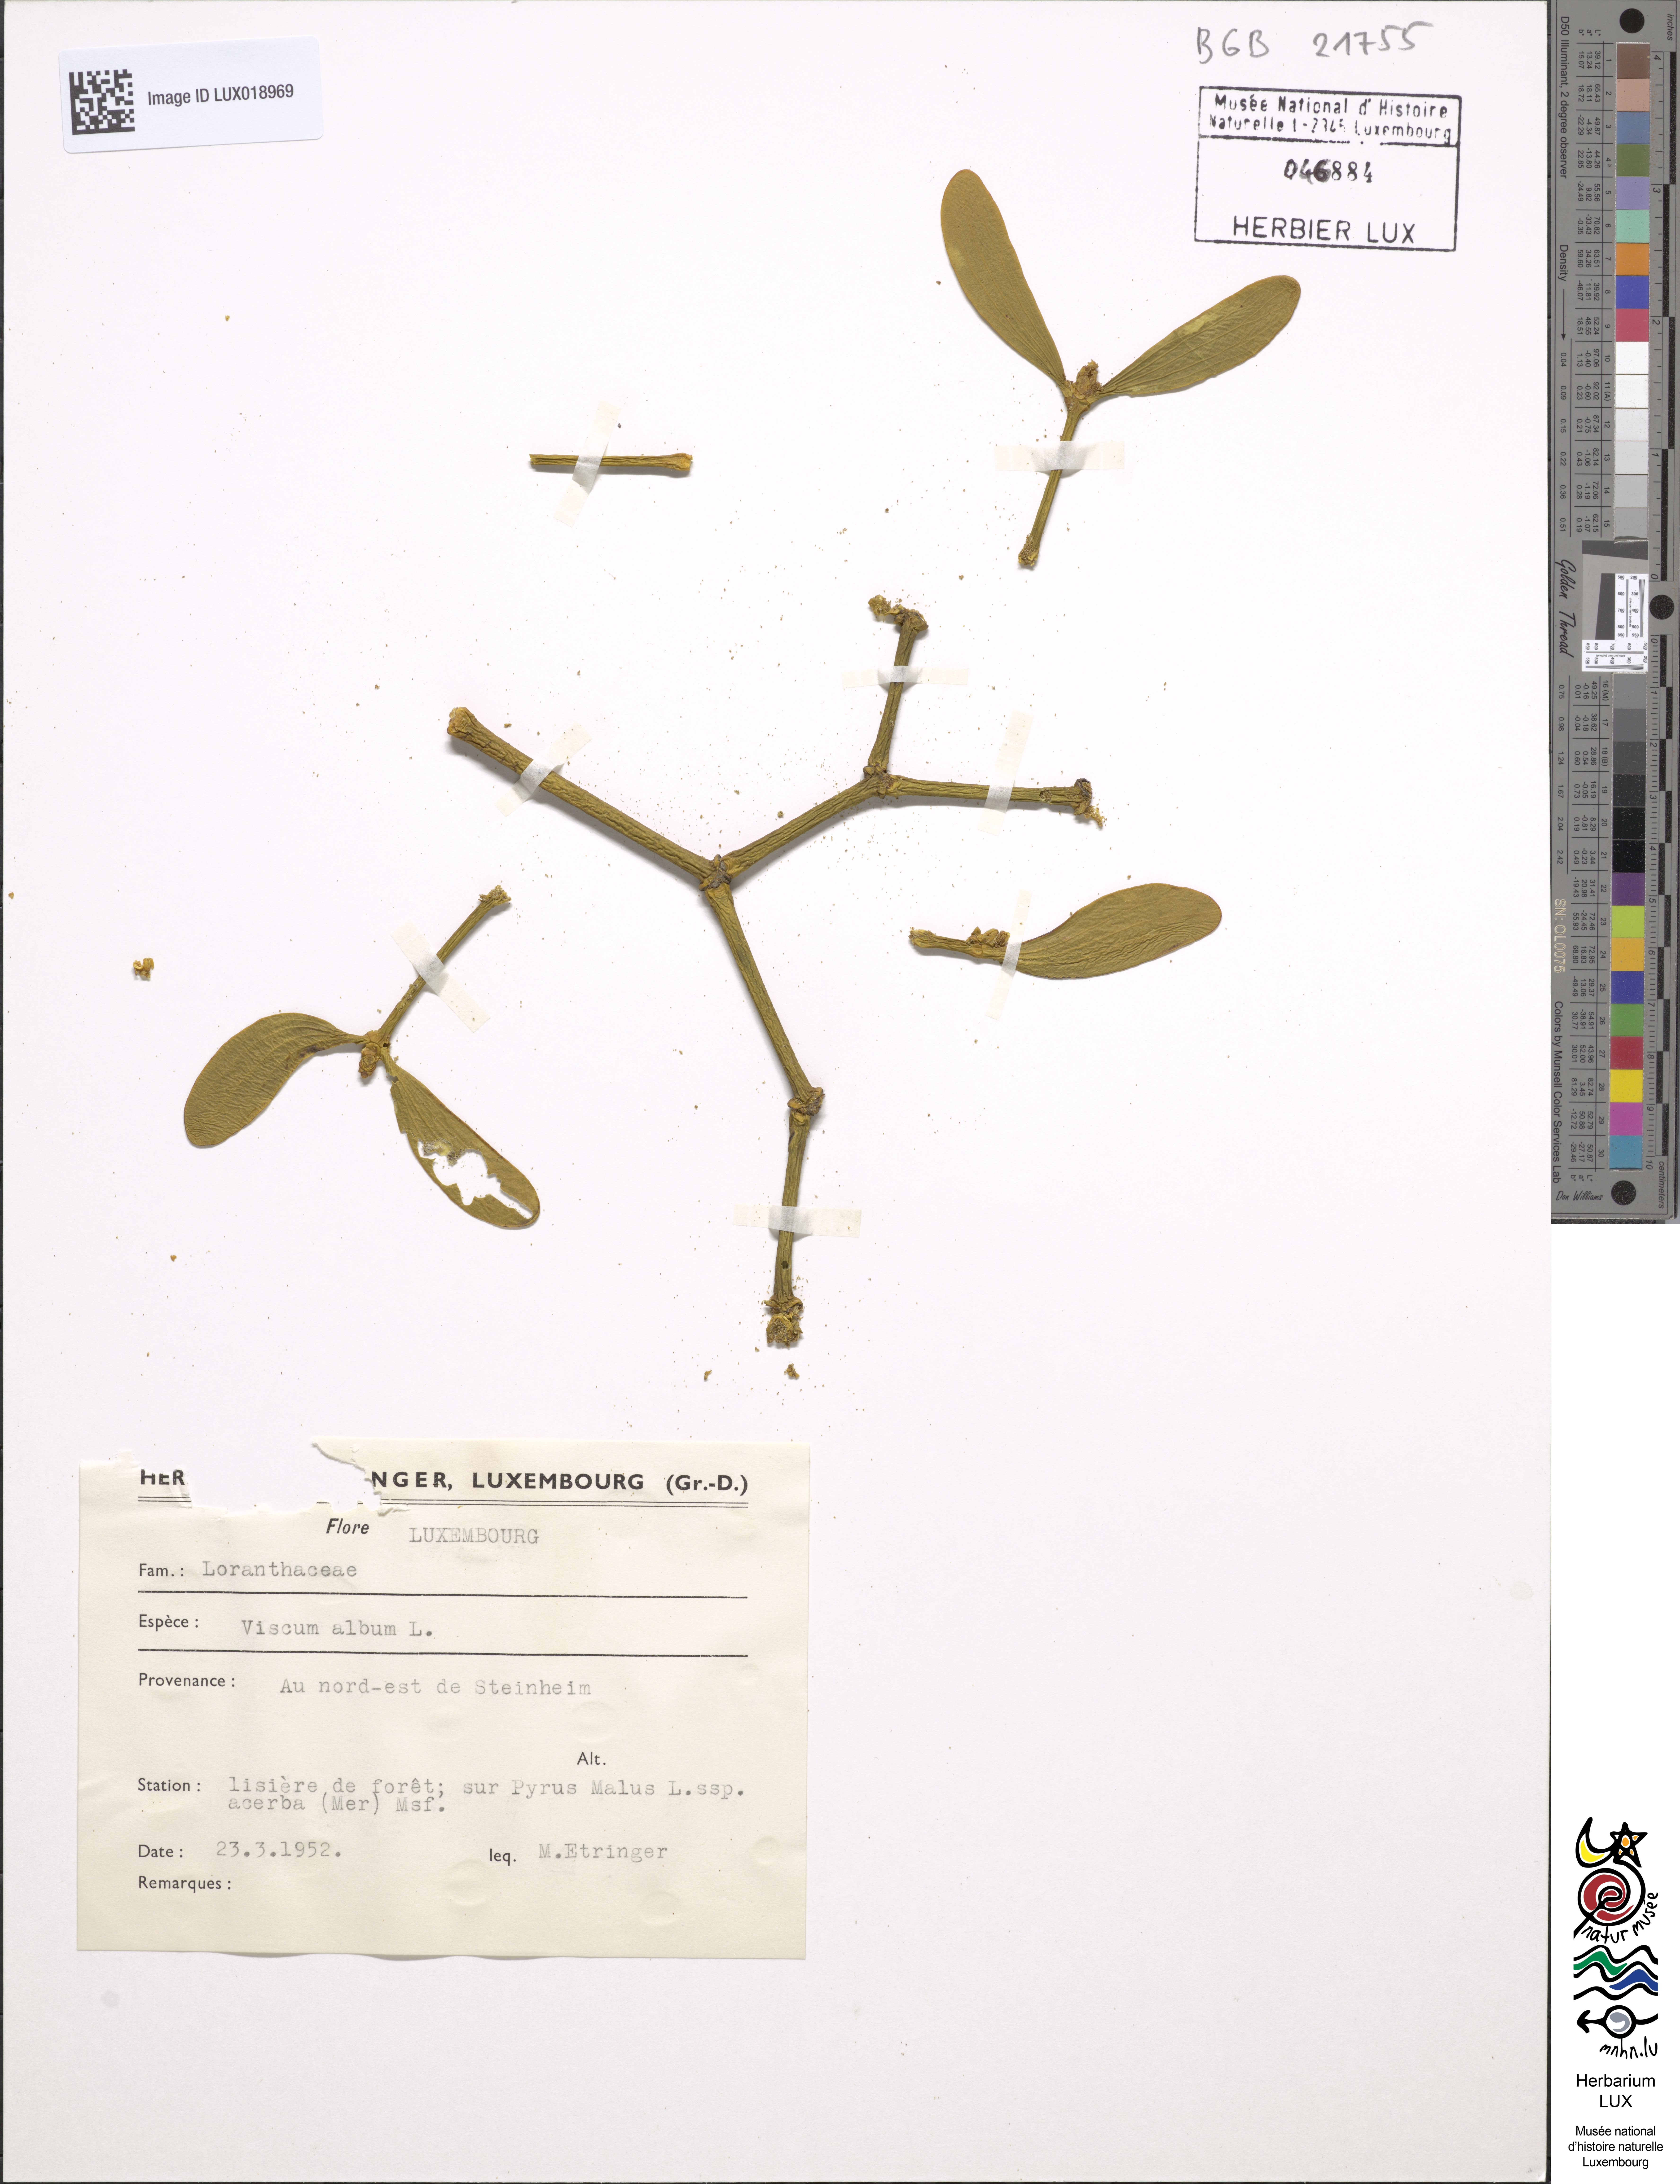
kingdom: Plantae
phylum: Tracheophyta
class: Magnoliopsida
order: Santalales
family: Viscaceae
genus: Viscum
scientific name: Viscum album
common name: Mistletoe
